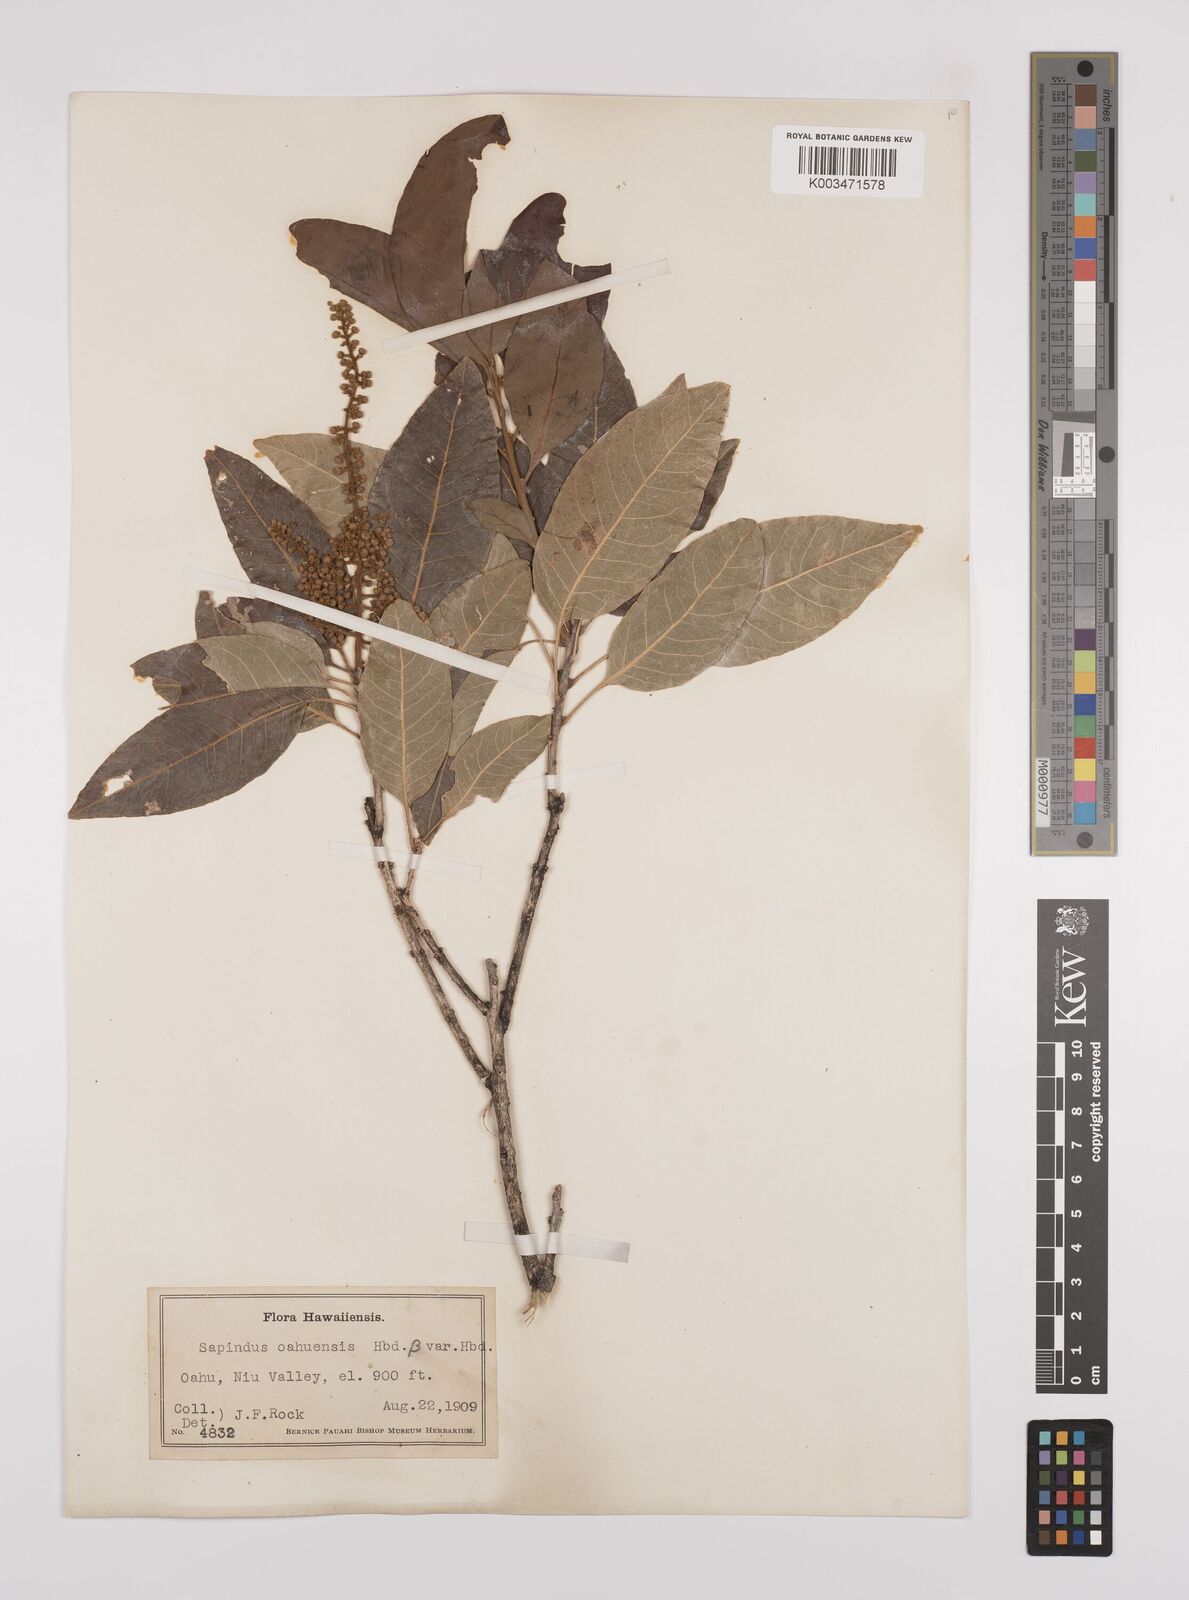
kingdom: Plantae
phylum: Tracheophyta
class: Magnoliopsida
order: Sapindales
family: Sapindaceae
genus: Sapindus
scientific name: Sapindus oahuensis
